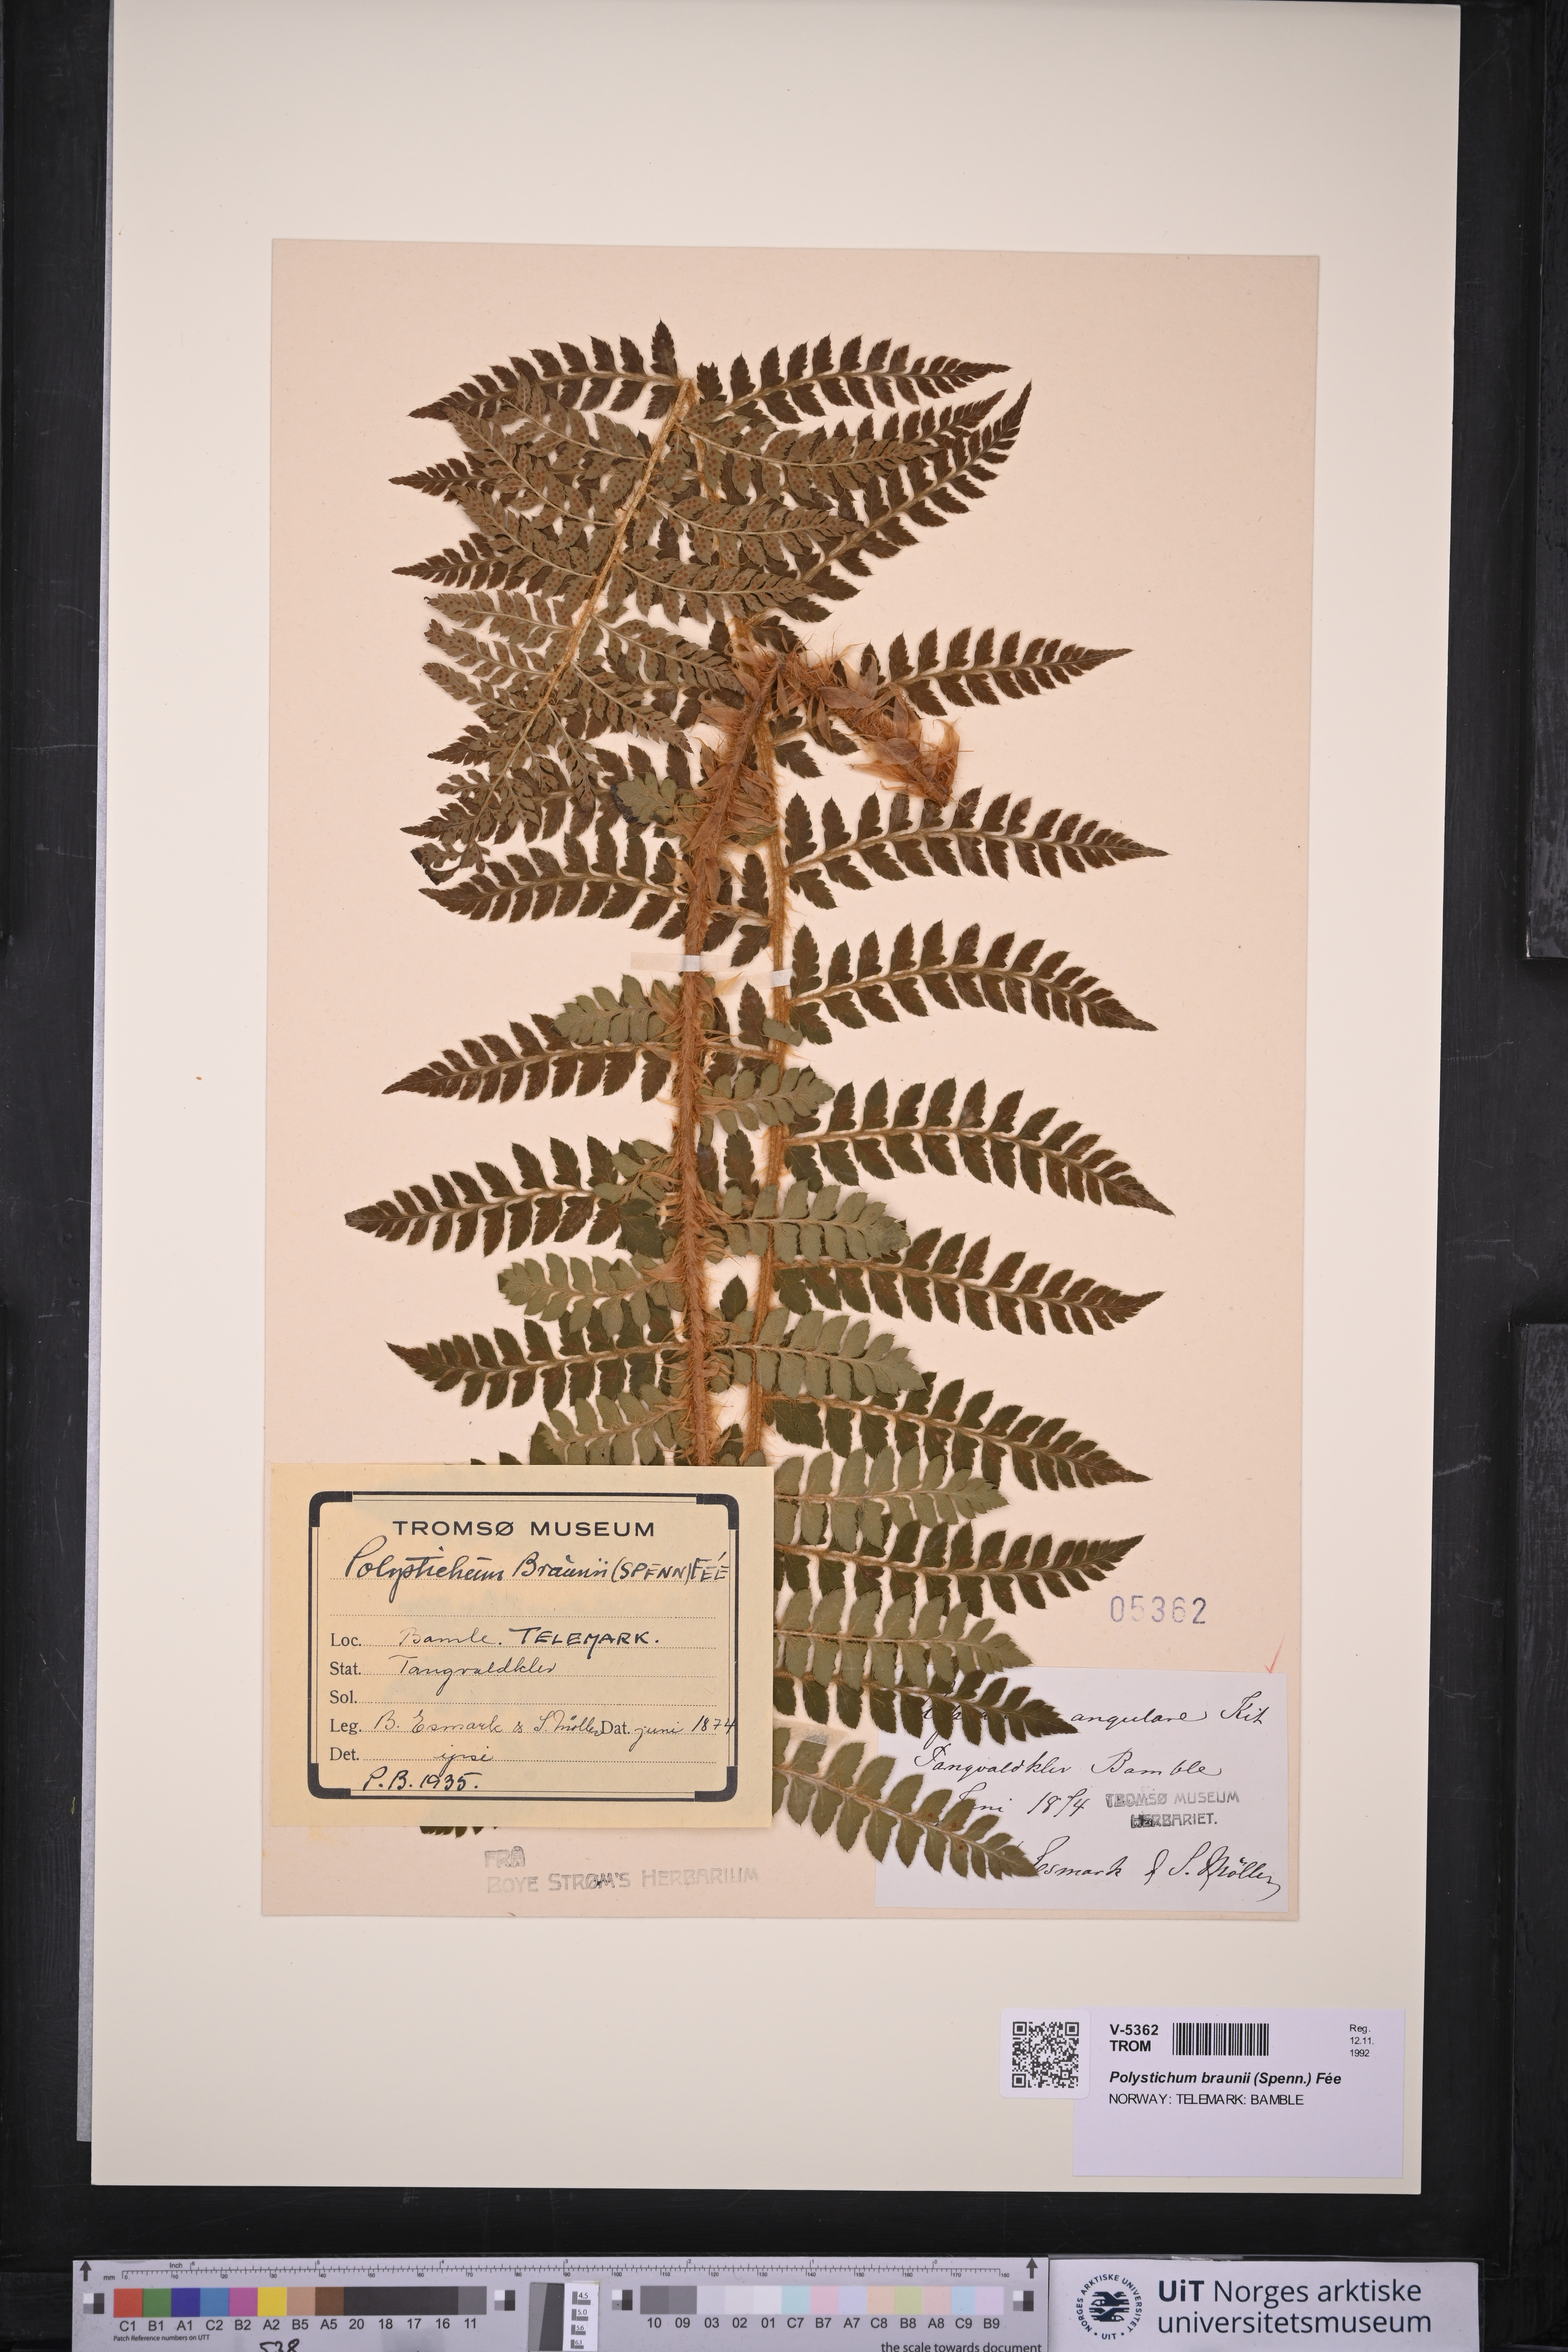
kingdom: Plantae
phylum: Tracheophyta
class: Polypodiopsida
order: Polypodiales
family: Dryopteridaceae
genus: Polystichum
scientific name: Polystichum braunii
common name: Braun's holly fern
